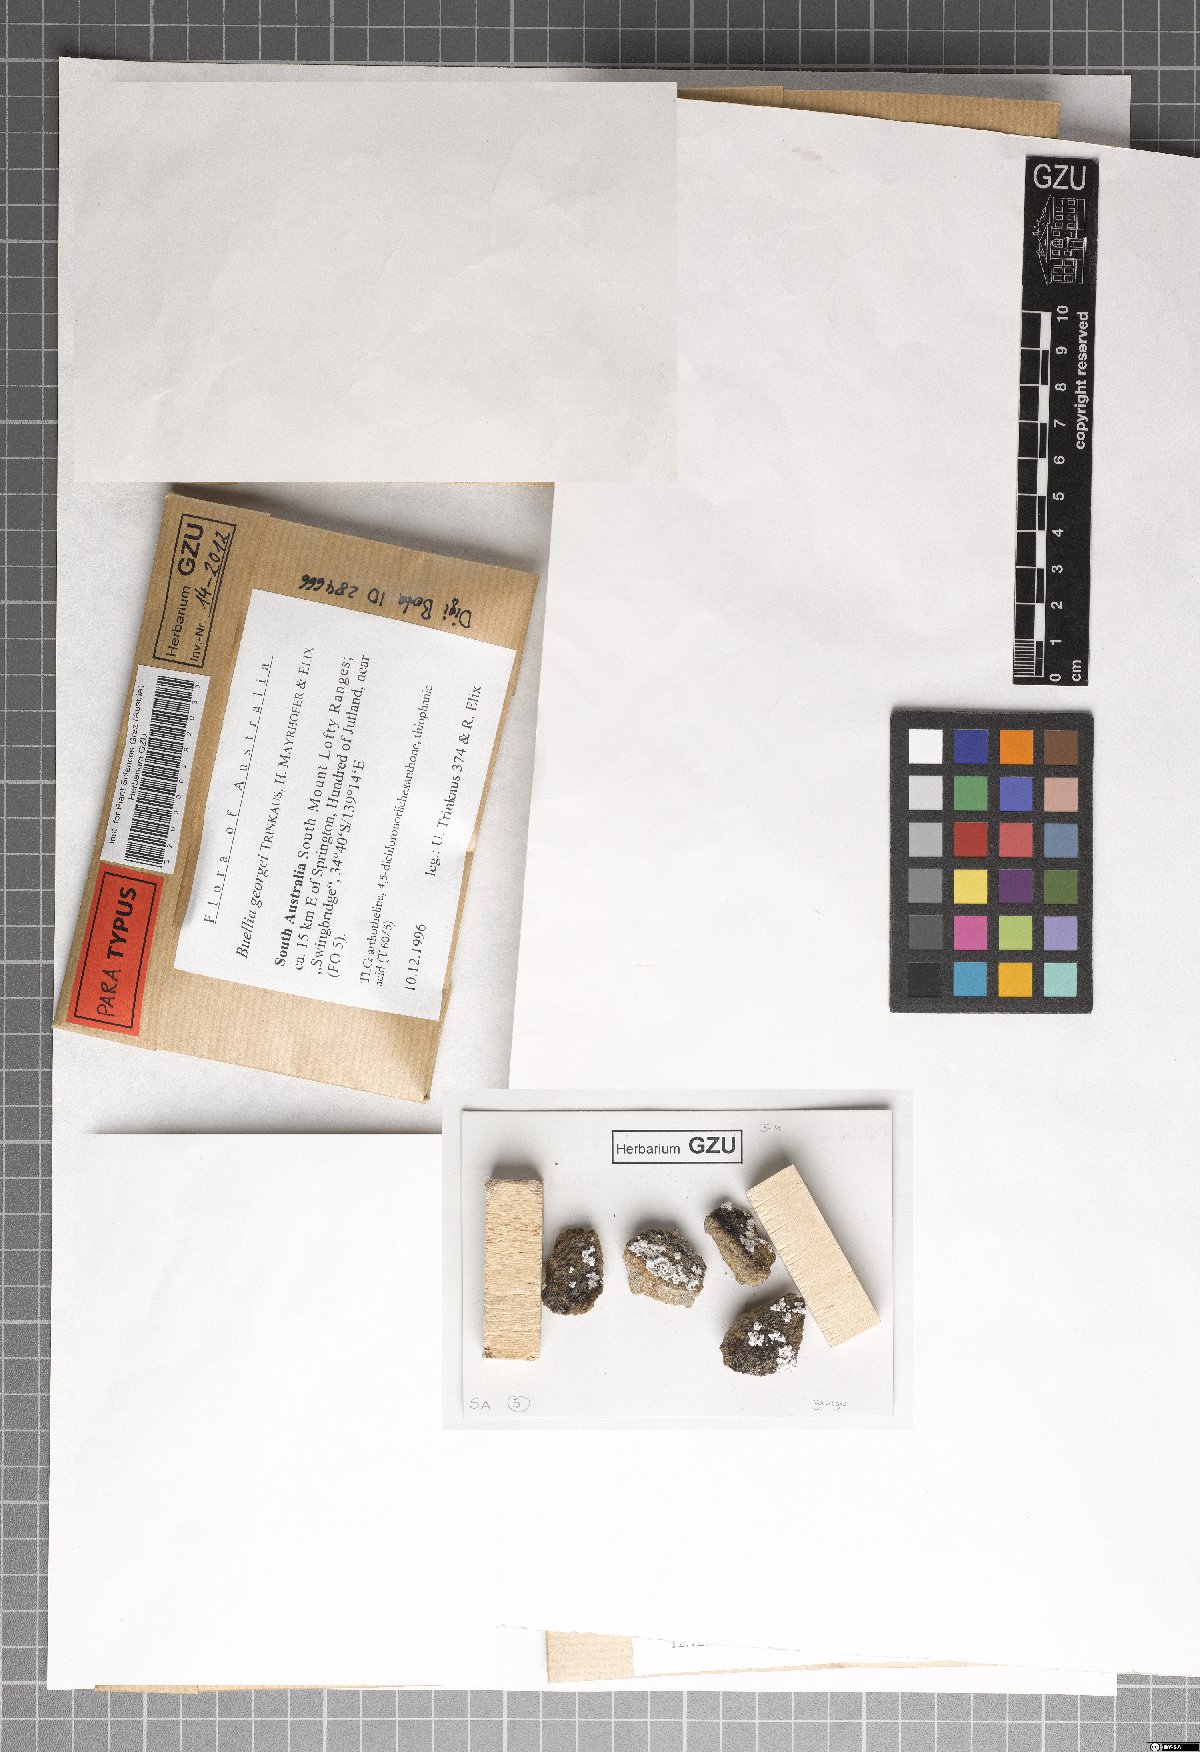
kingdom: Fungi
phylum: Ascomycota
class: Lecanoromycetes
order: Caliciales
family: Caliciaceae
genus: Buellia
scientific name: Buellia georgei
